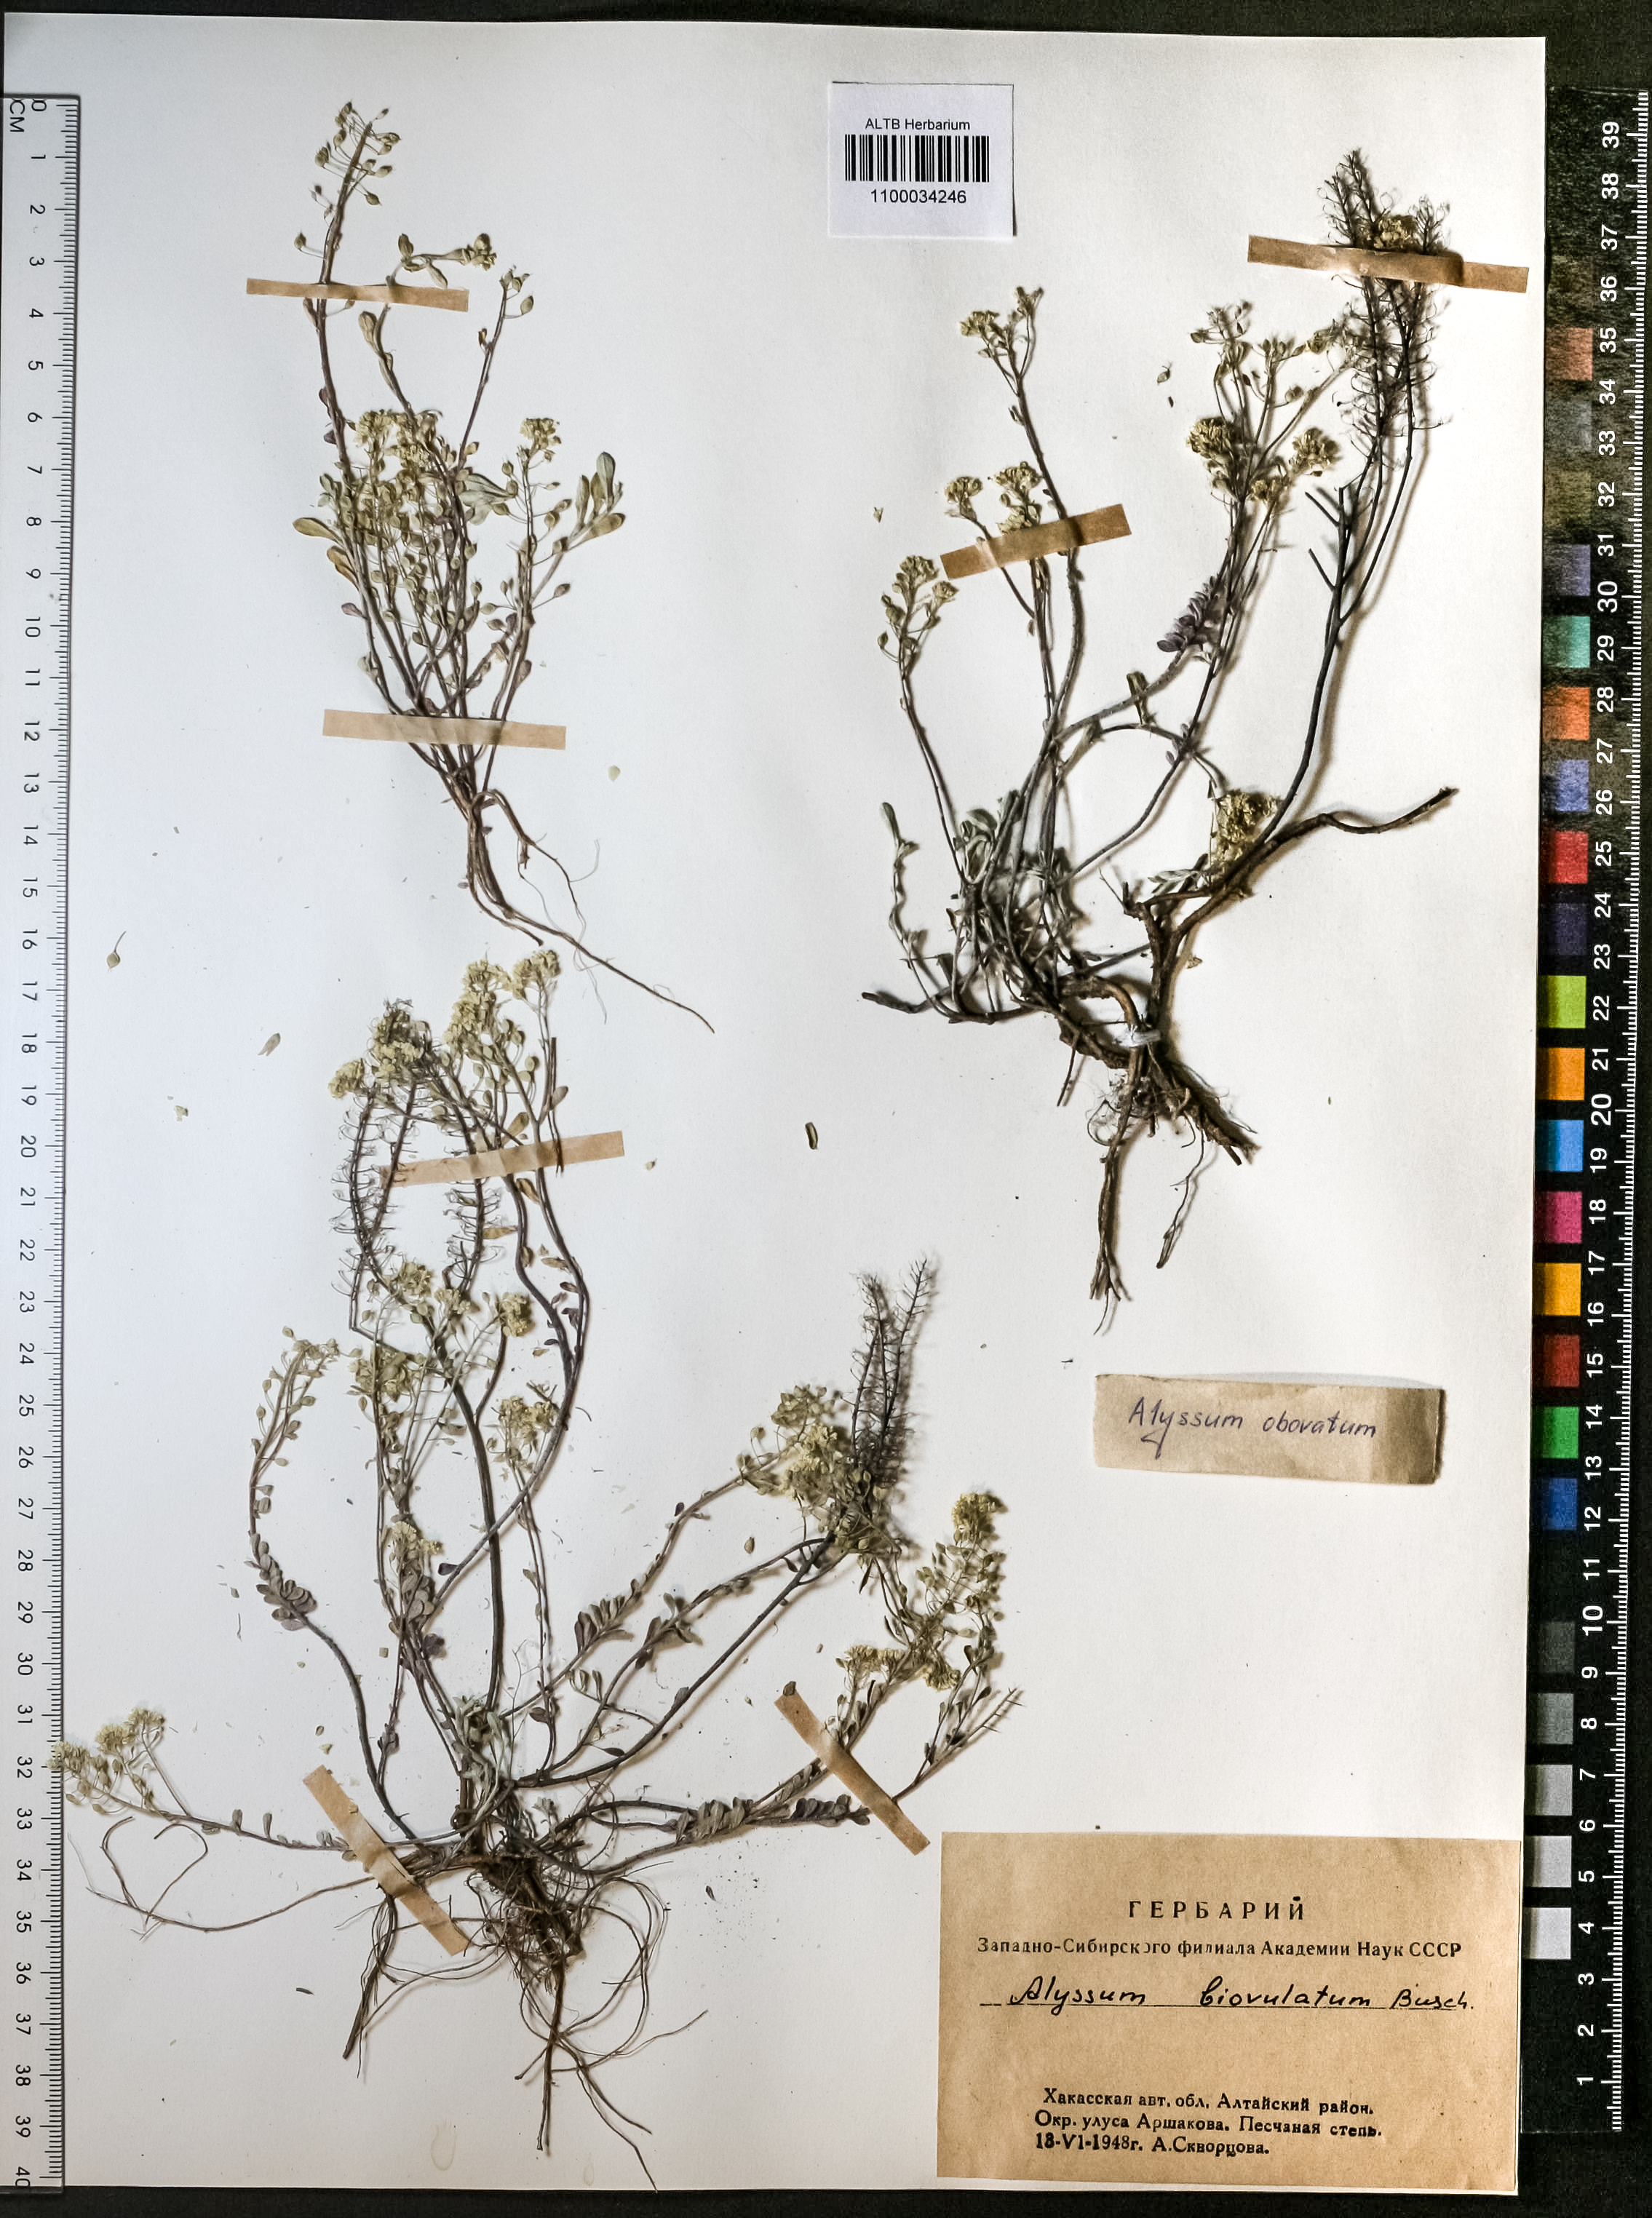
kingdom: Plantae
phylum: Tracheophyta
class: Magnoliopsida
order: Brassicales
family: Brassicaceae
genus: Odontarrhena
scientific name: Odontarrhena obovata
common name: American alyssum
